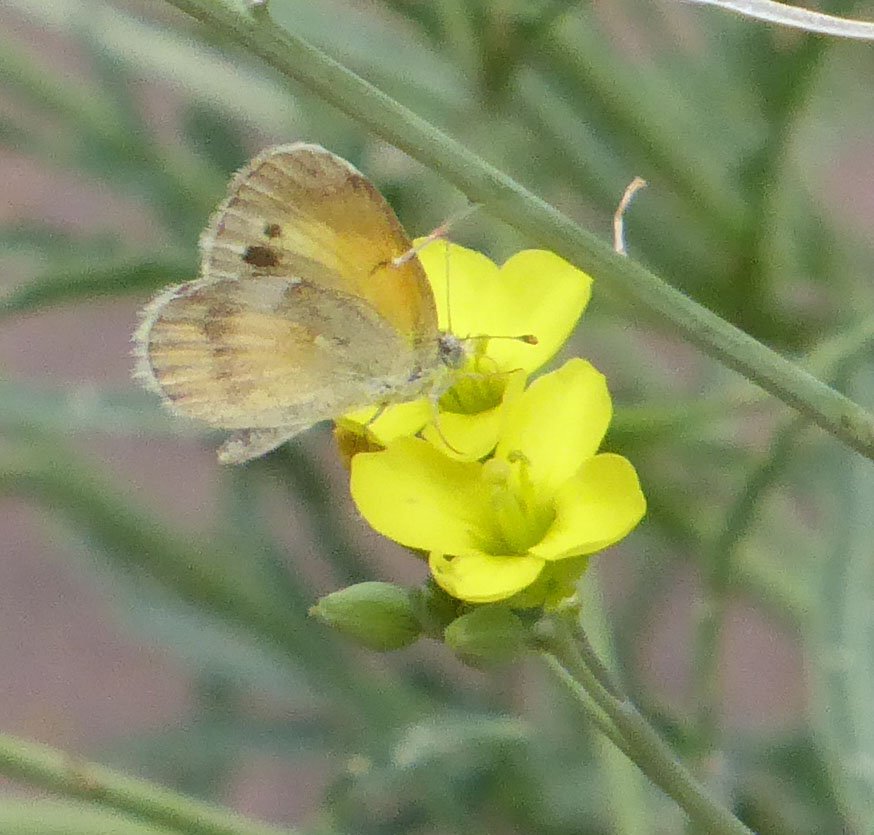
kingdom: Animalia
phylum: Arthropoda
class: Insecta
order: Lepidoptera
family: Pieridae
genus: Nathalis
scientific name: Nathalis iole
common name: Dainty Sulphur
